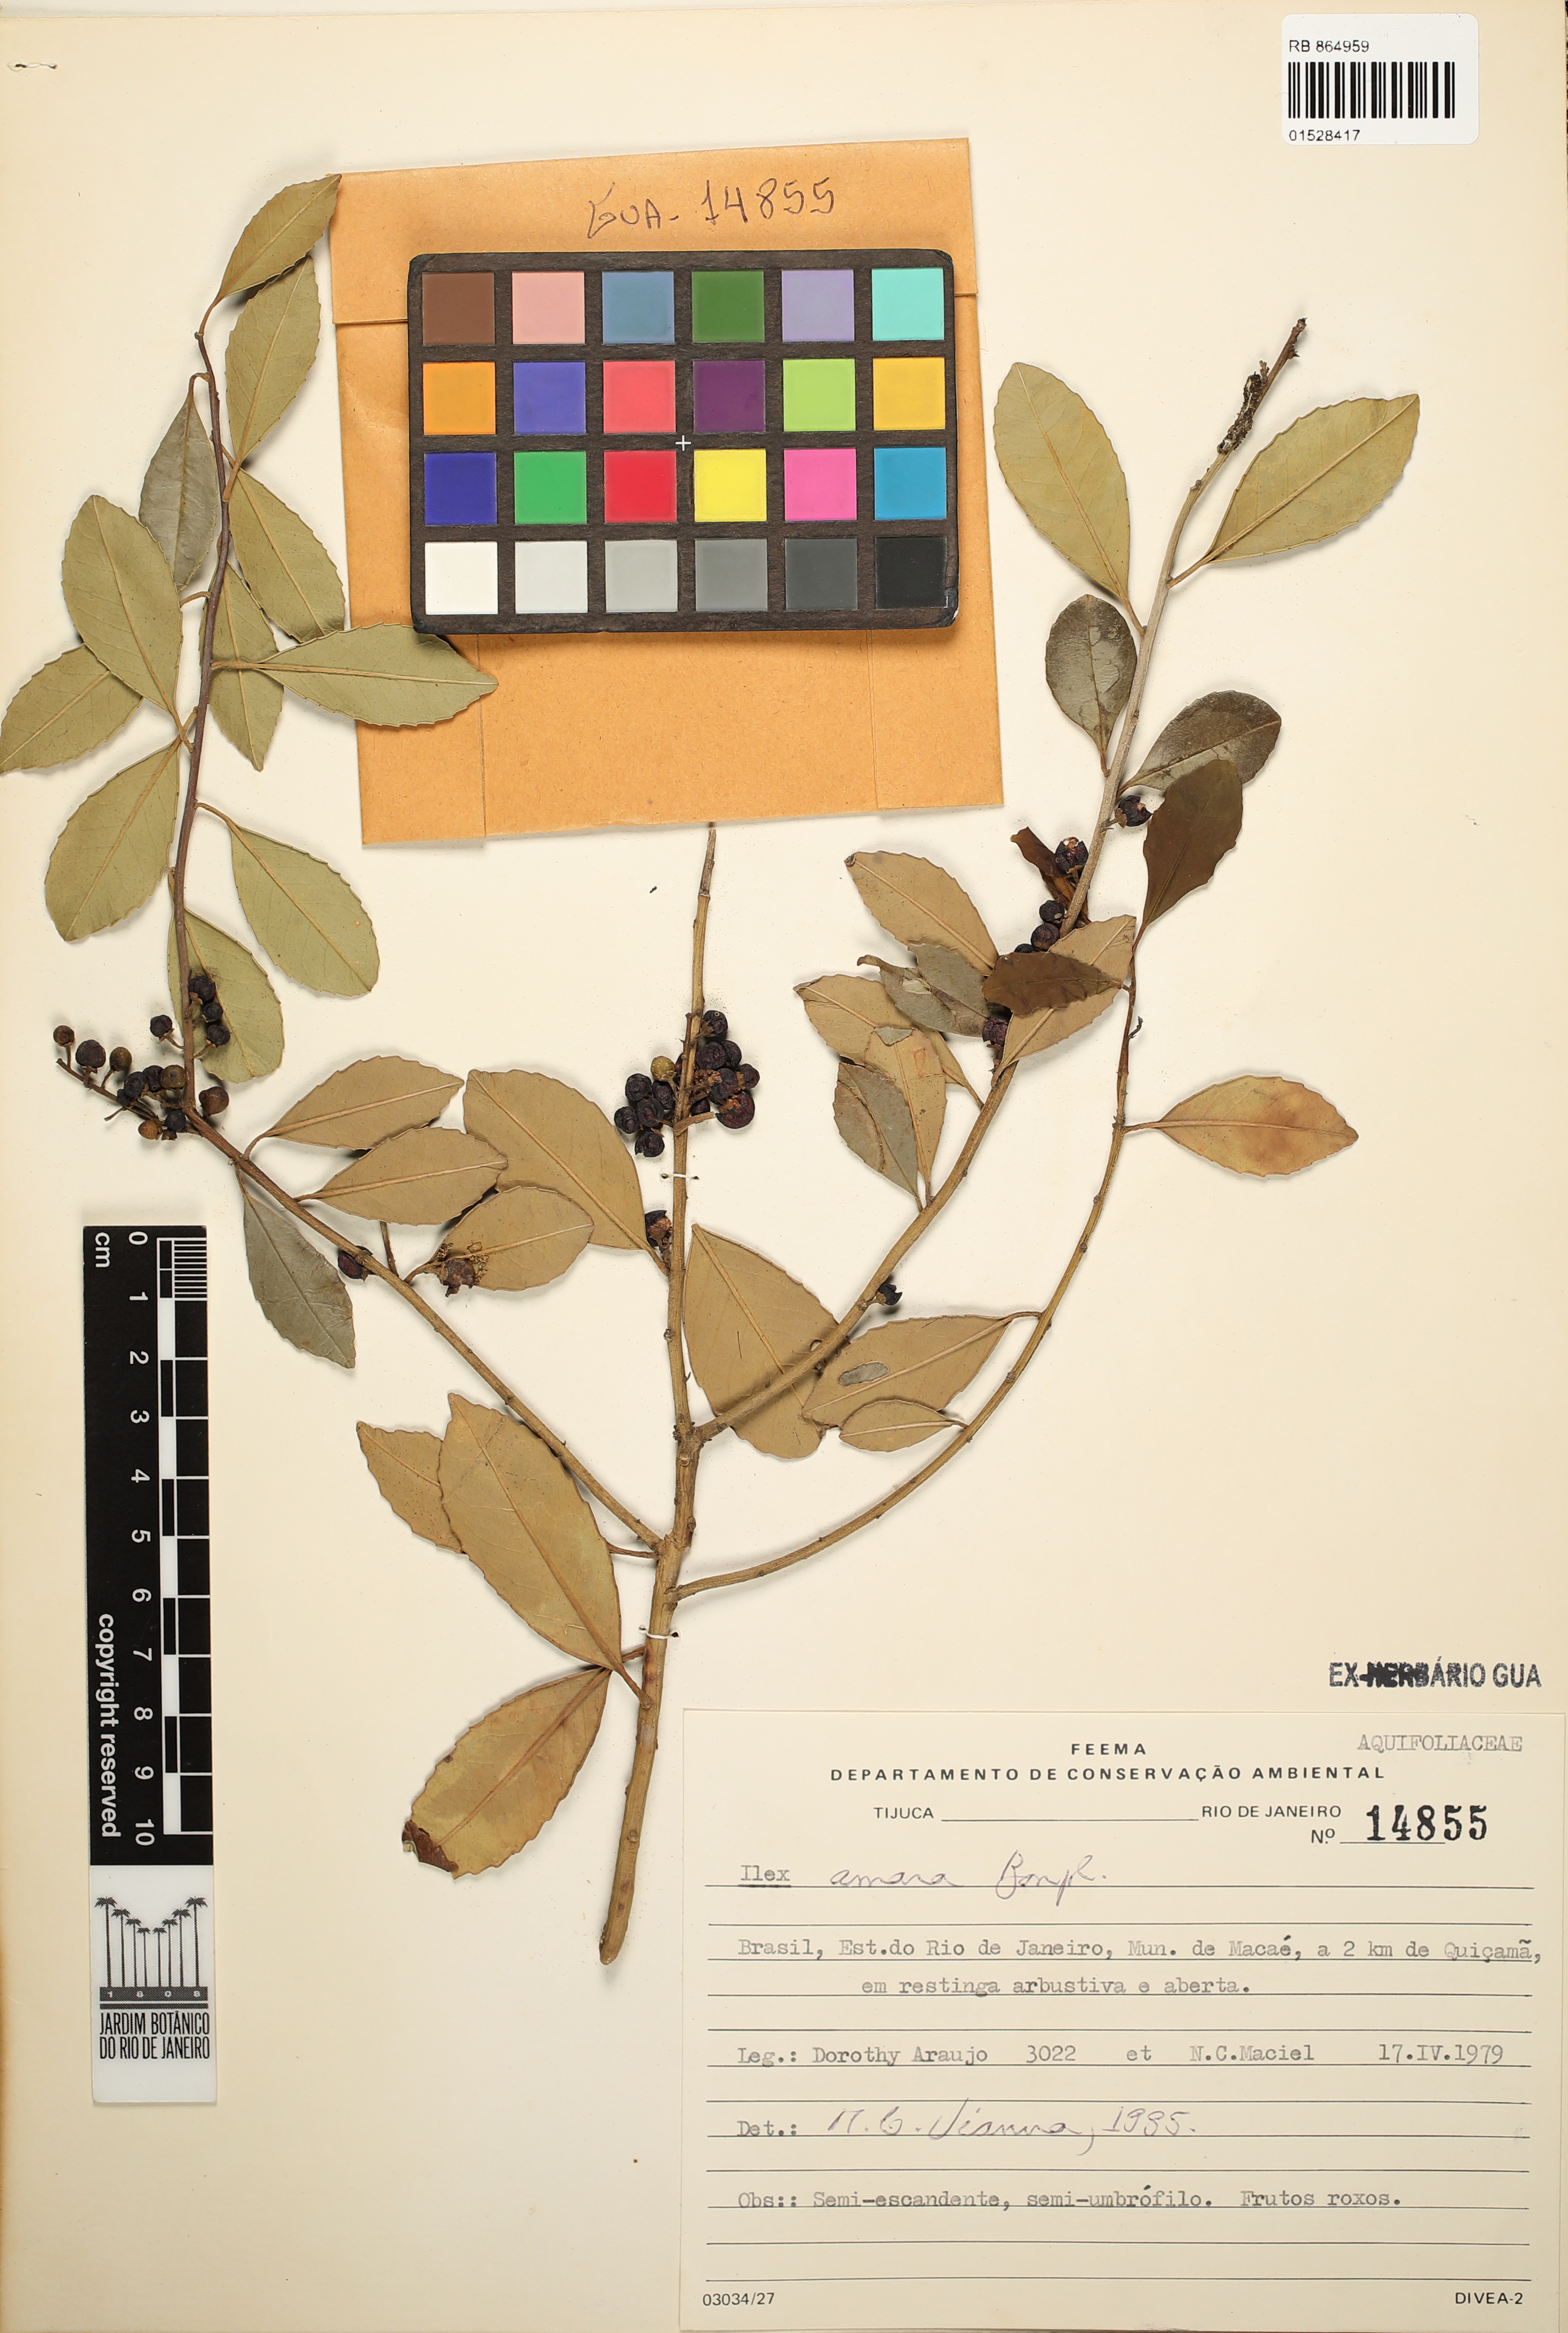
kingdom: Plantae
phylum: Tracheophyta
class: Magnoliopsida
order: Aquifoliales
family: Aquifoliaceae
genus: Ilex
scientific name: Ilex dumosa
